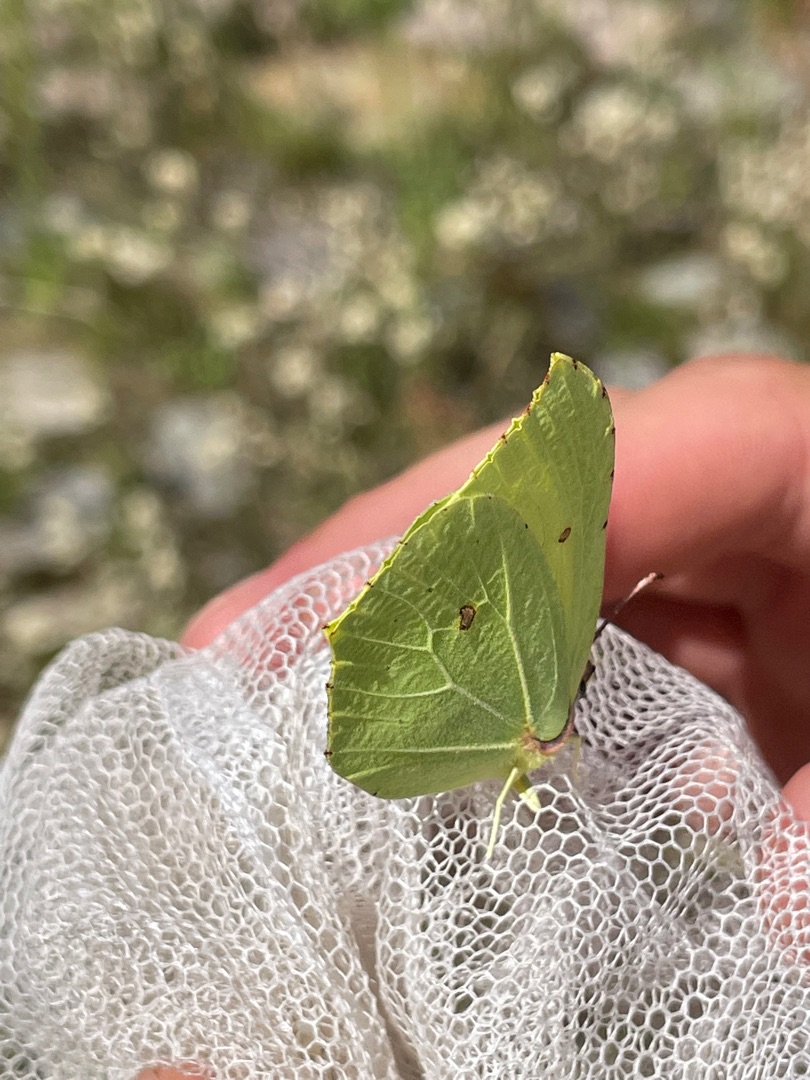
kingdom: Animalia
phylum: Arthropoda
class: Insecta
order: Lepidoptera
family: Pieridae
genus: Gonepteryx
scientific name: Gonepteryx rhamni
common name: Citronsommerfugl
